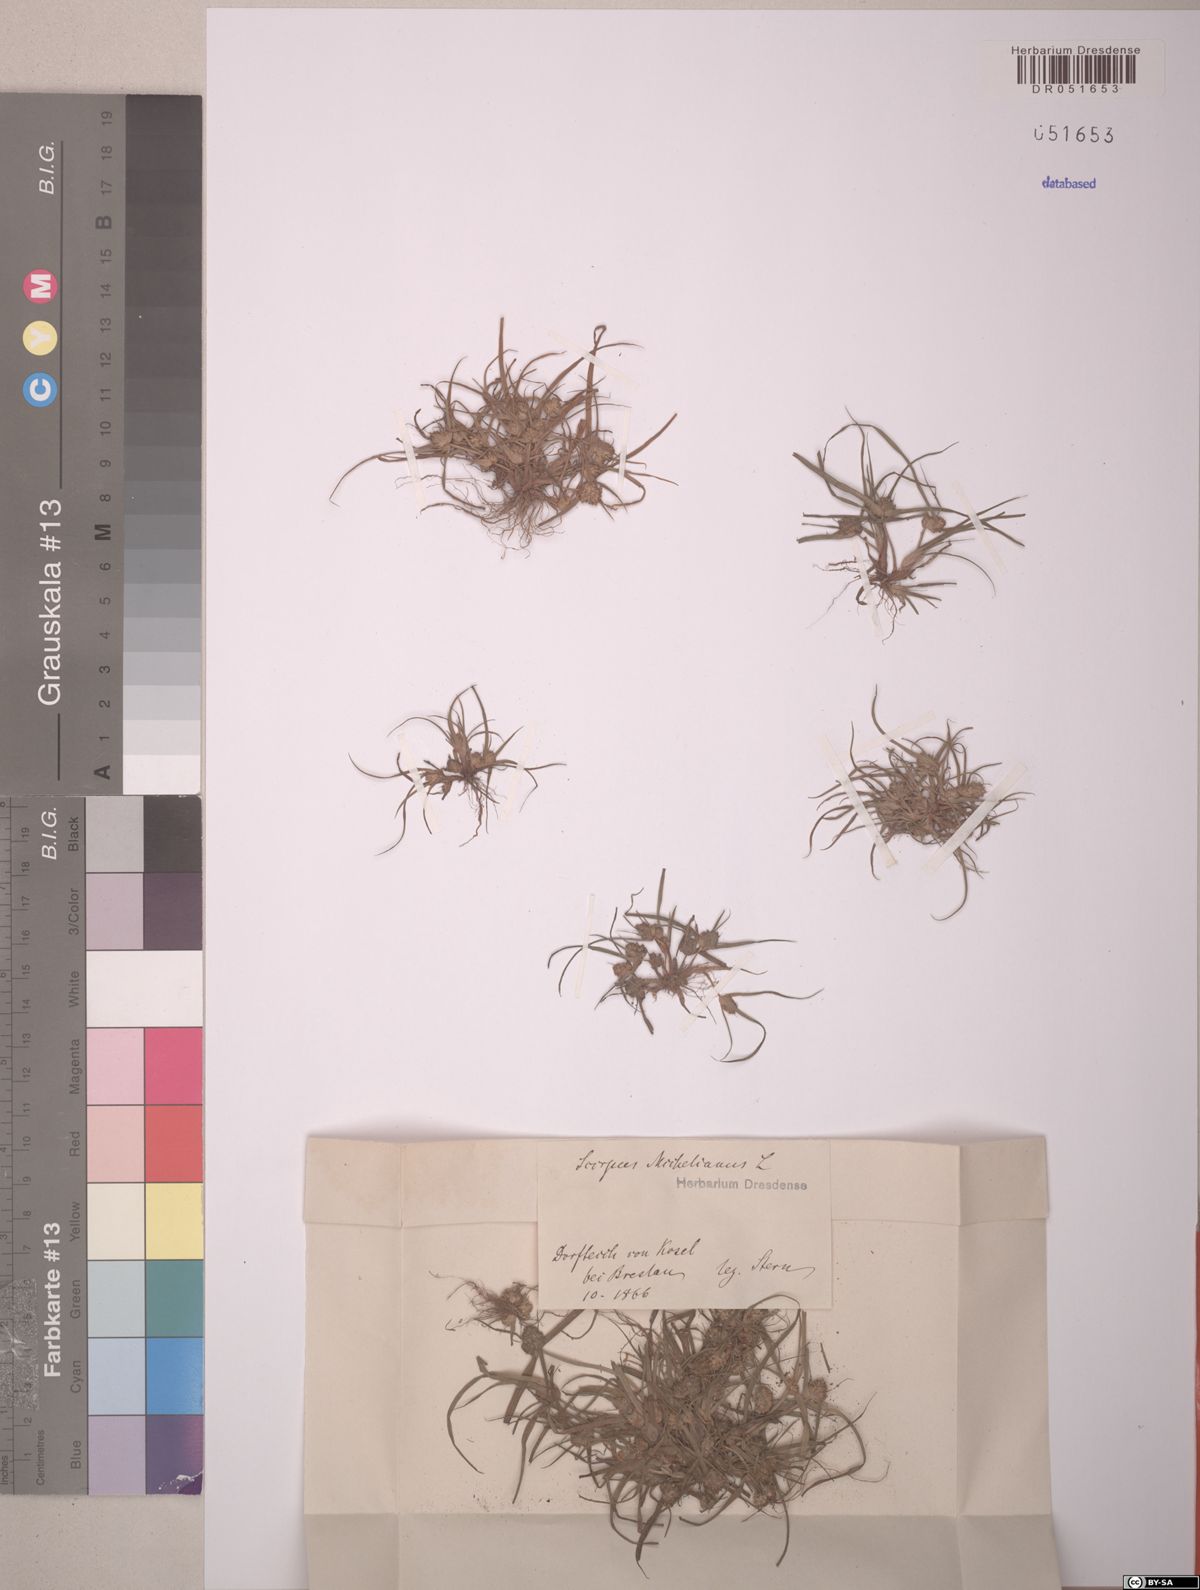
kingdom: Plantae
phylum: Tracheophyta
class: Liliopsida
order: Poales
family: Cyperaceae
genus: Cyperus
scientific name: Cyperus michelianus
